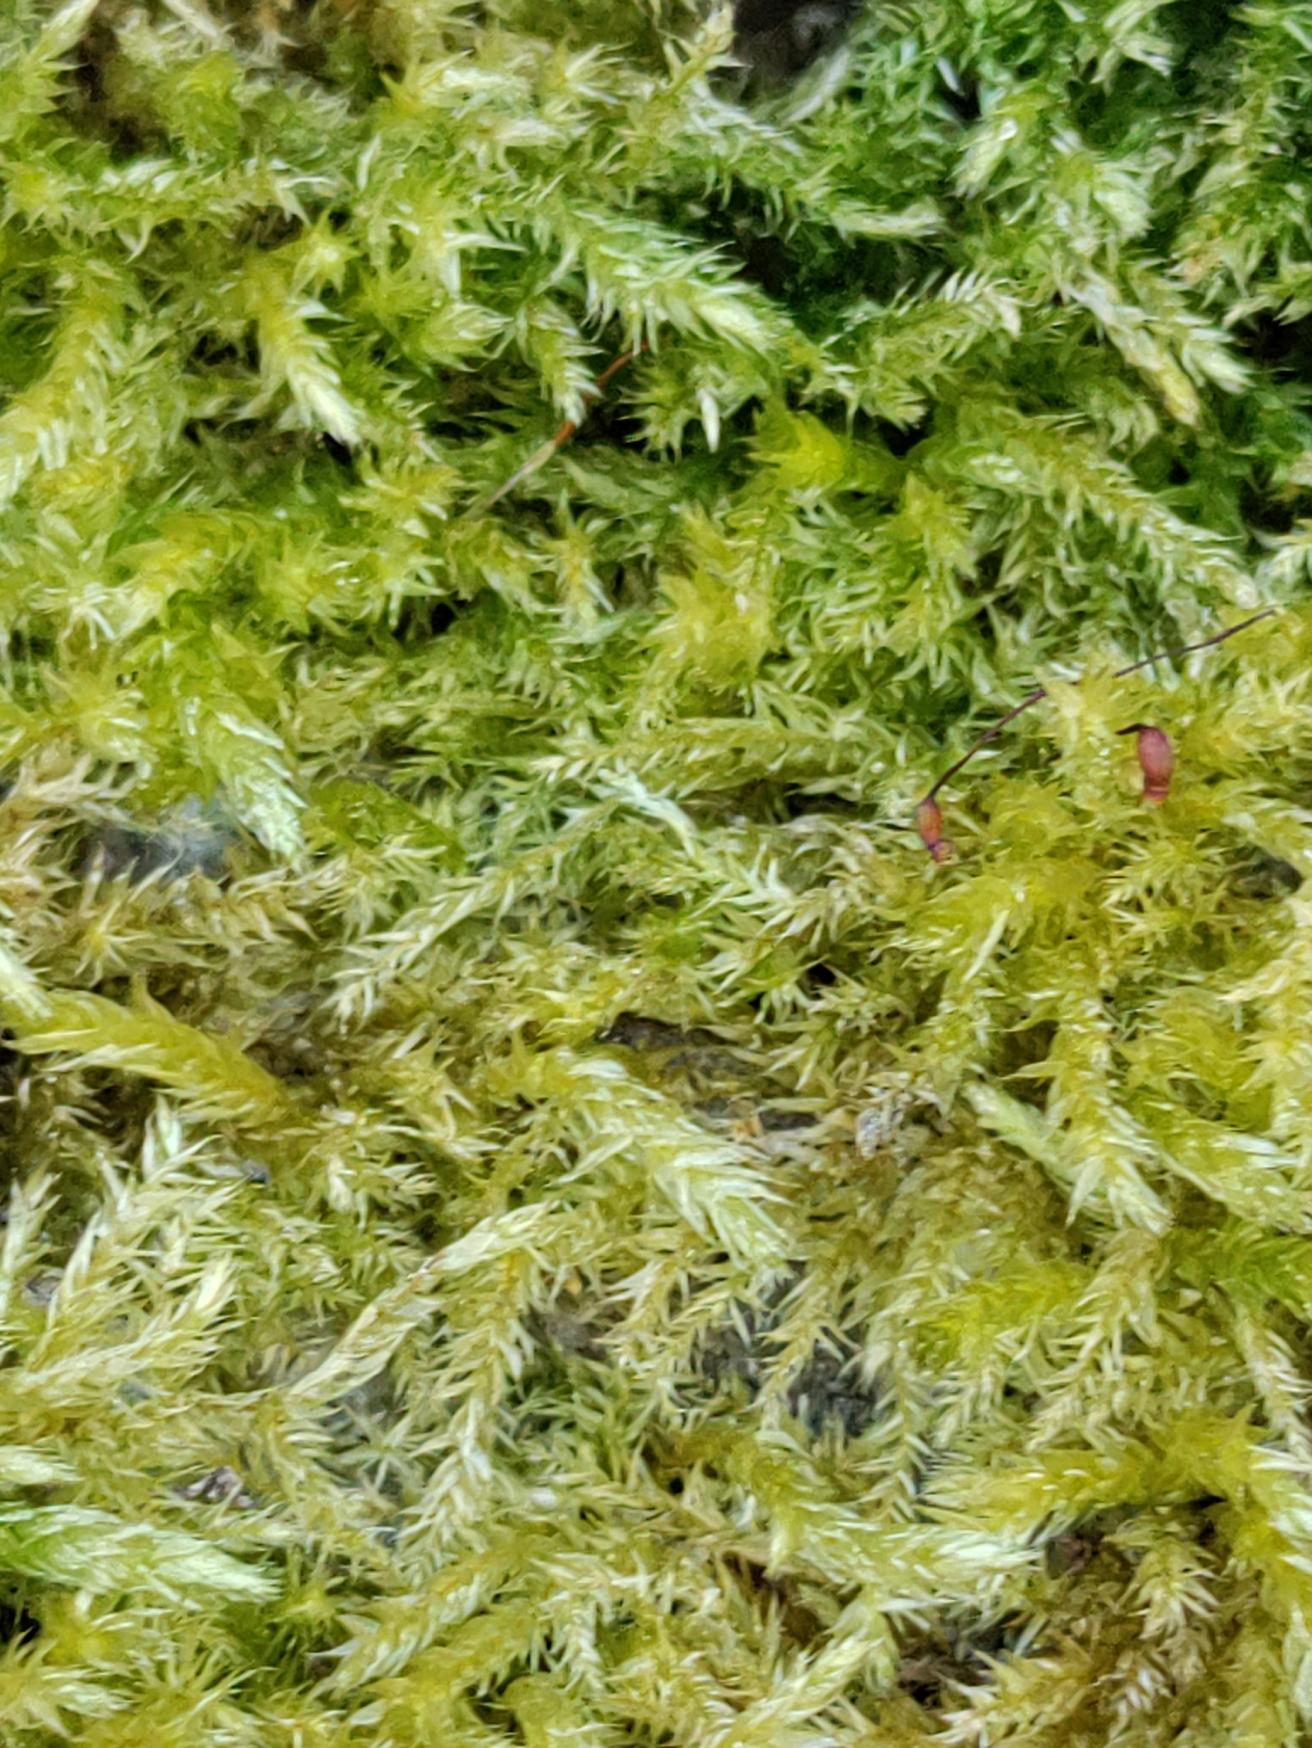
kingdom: Plantae
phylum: Bryophyta
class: Bryopsida
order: Hypnales
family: Brachytheciaceae
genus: Brachythecium
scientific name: Brachythecium
